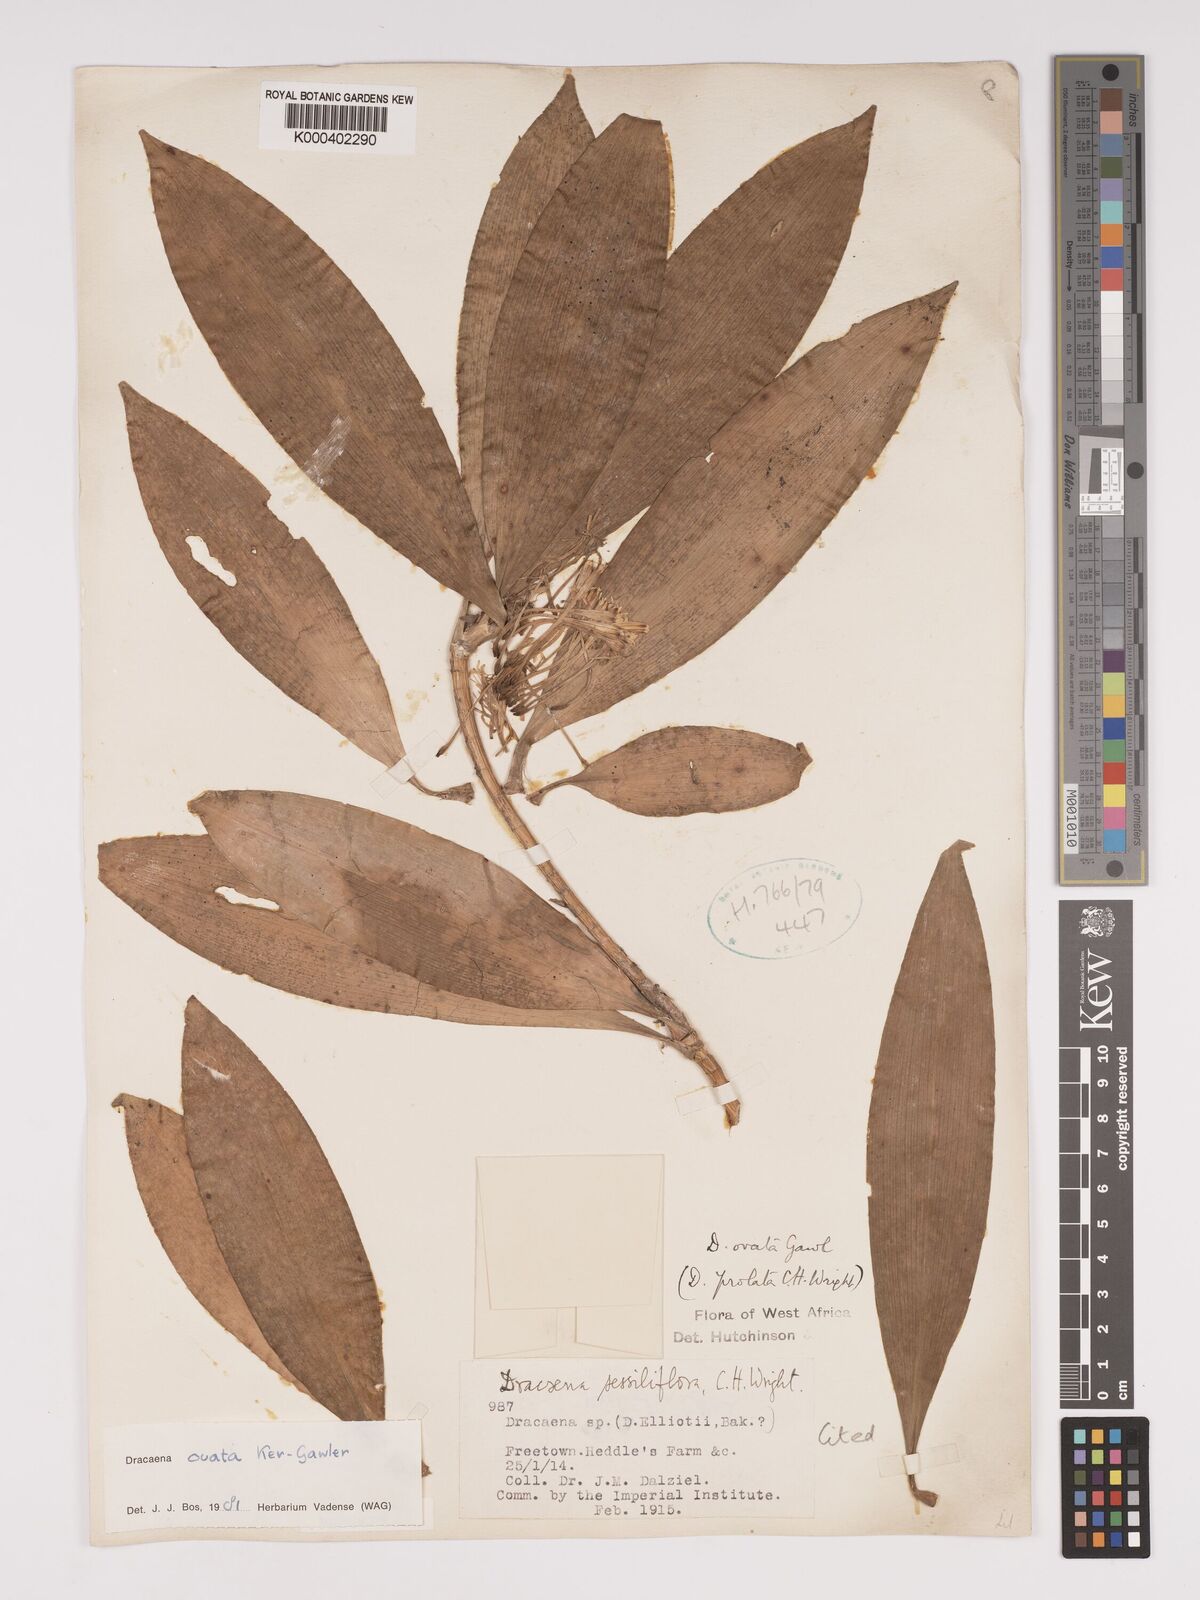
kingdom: Plantae
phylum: Tracheophyta
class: Liliopsida
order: Asparagales
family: Asparagaceae
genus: Dracaena
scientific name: Dracaena ovata
